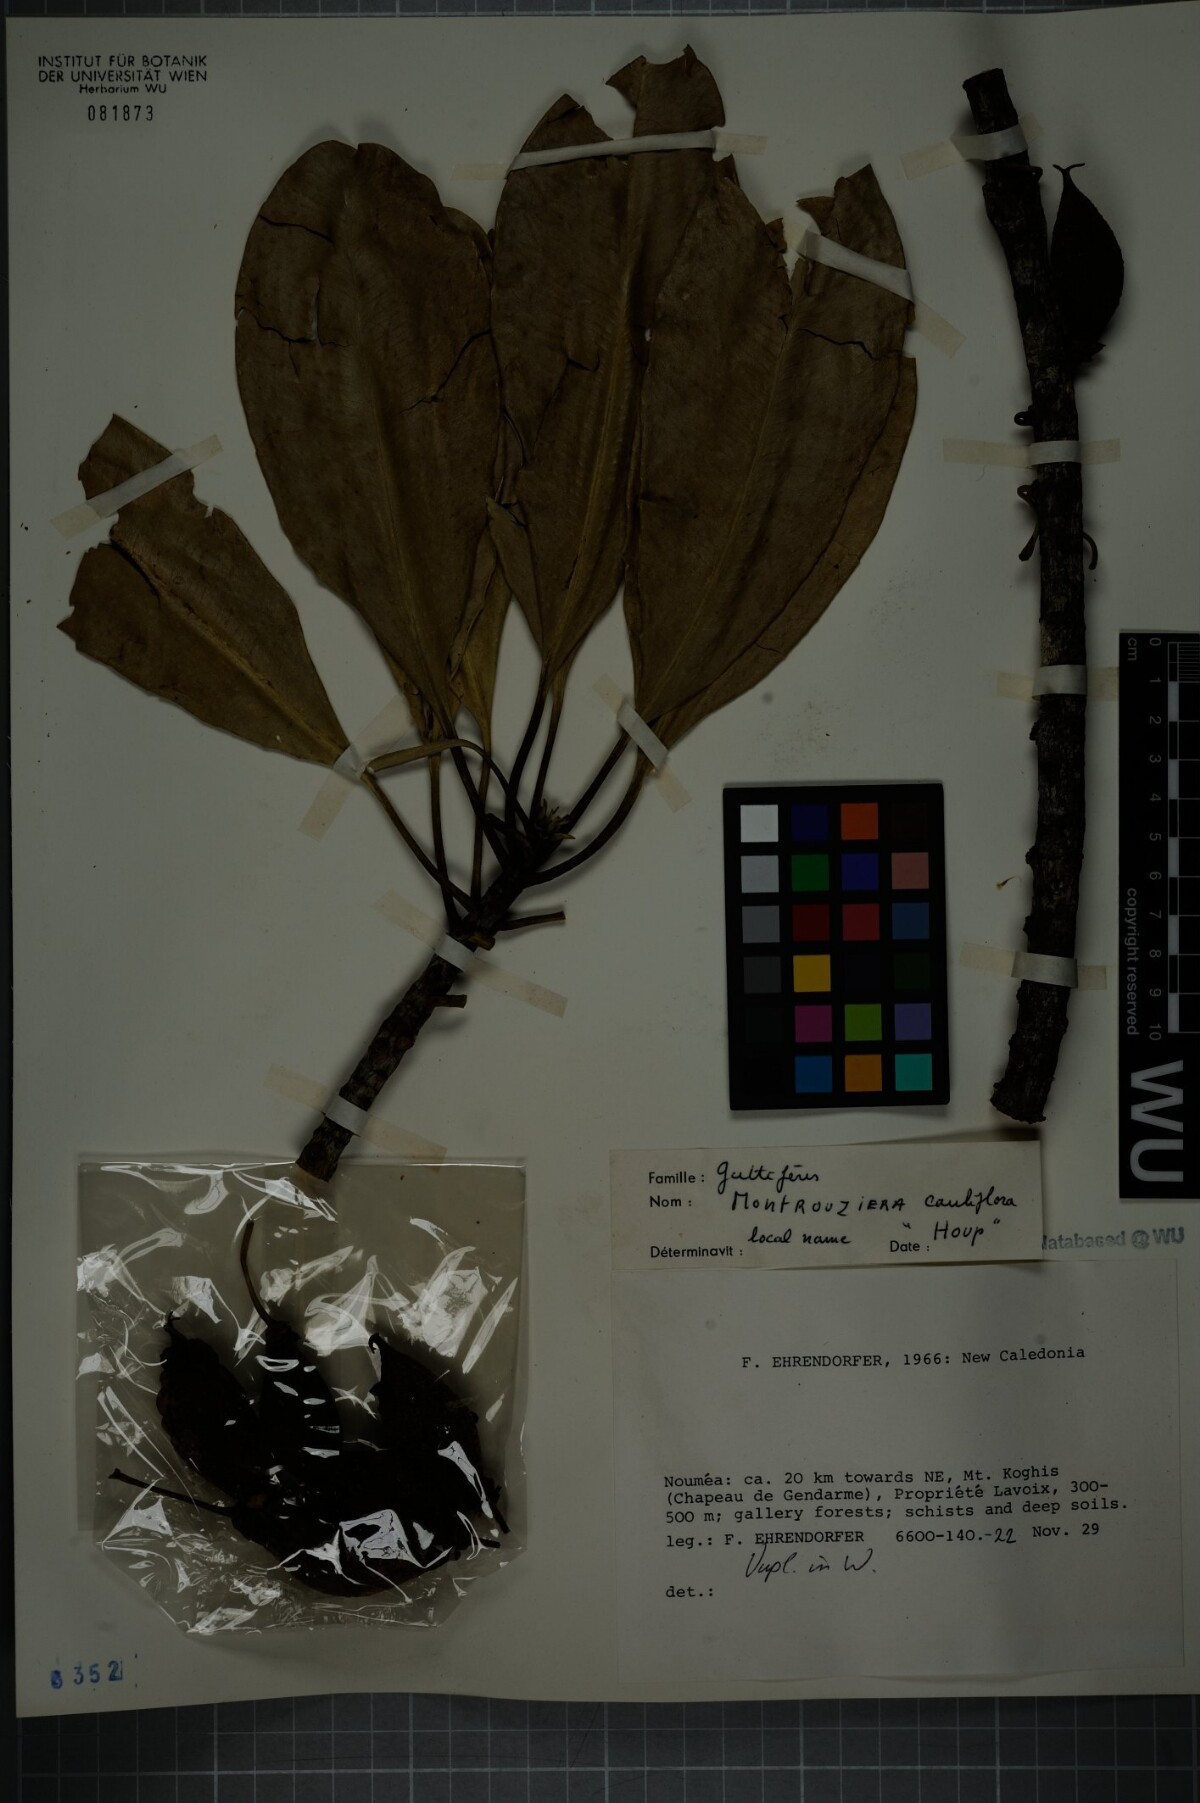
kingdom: Plantae
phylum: Tracheophyta
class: Magnoliopsida
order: Malpighiales
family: Clusiaceae
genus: Montrouziera
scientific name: Montrouziera cauliflora
